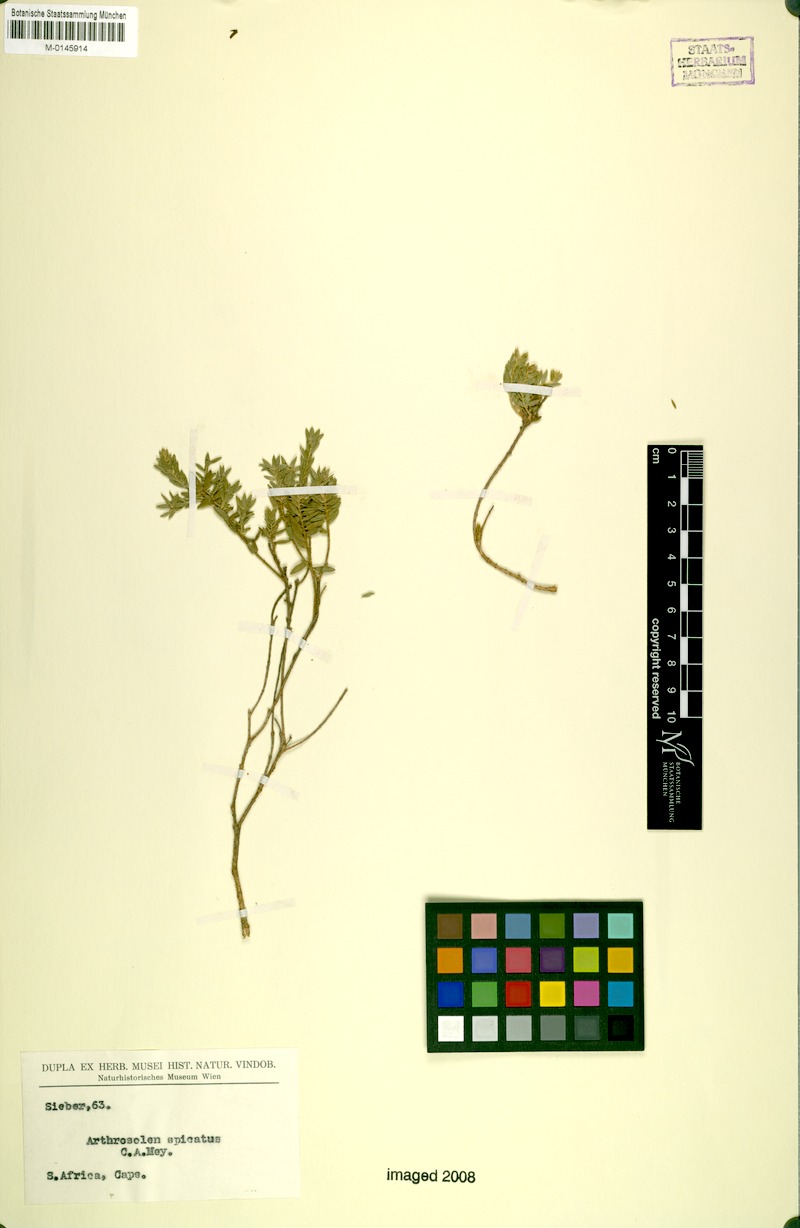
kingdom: Plantae
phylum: Tracheophyta
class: Magnoliopsida
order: Malvales
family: Thymelaeaceae
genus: Gnidia
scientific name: Gnidia spicata
